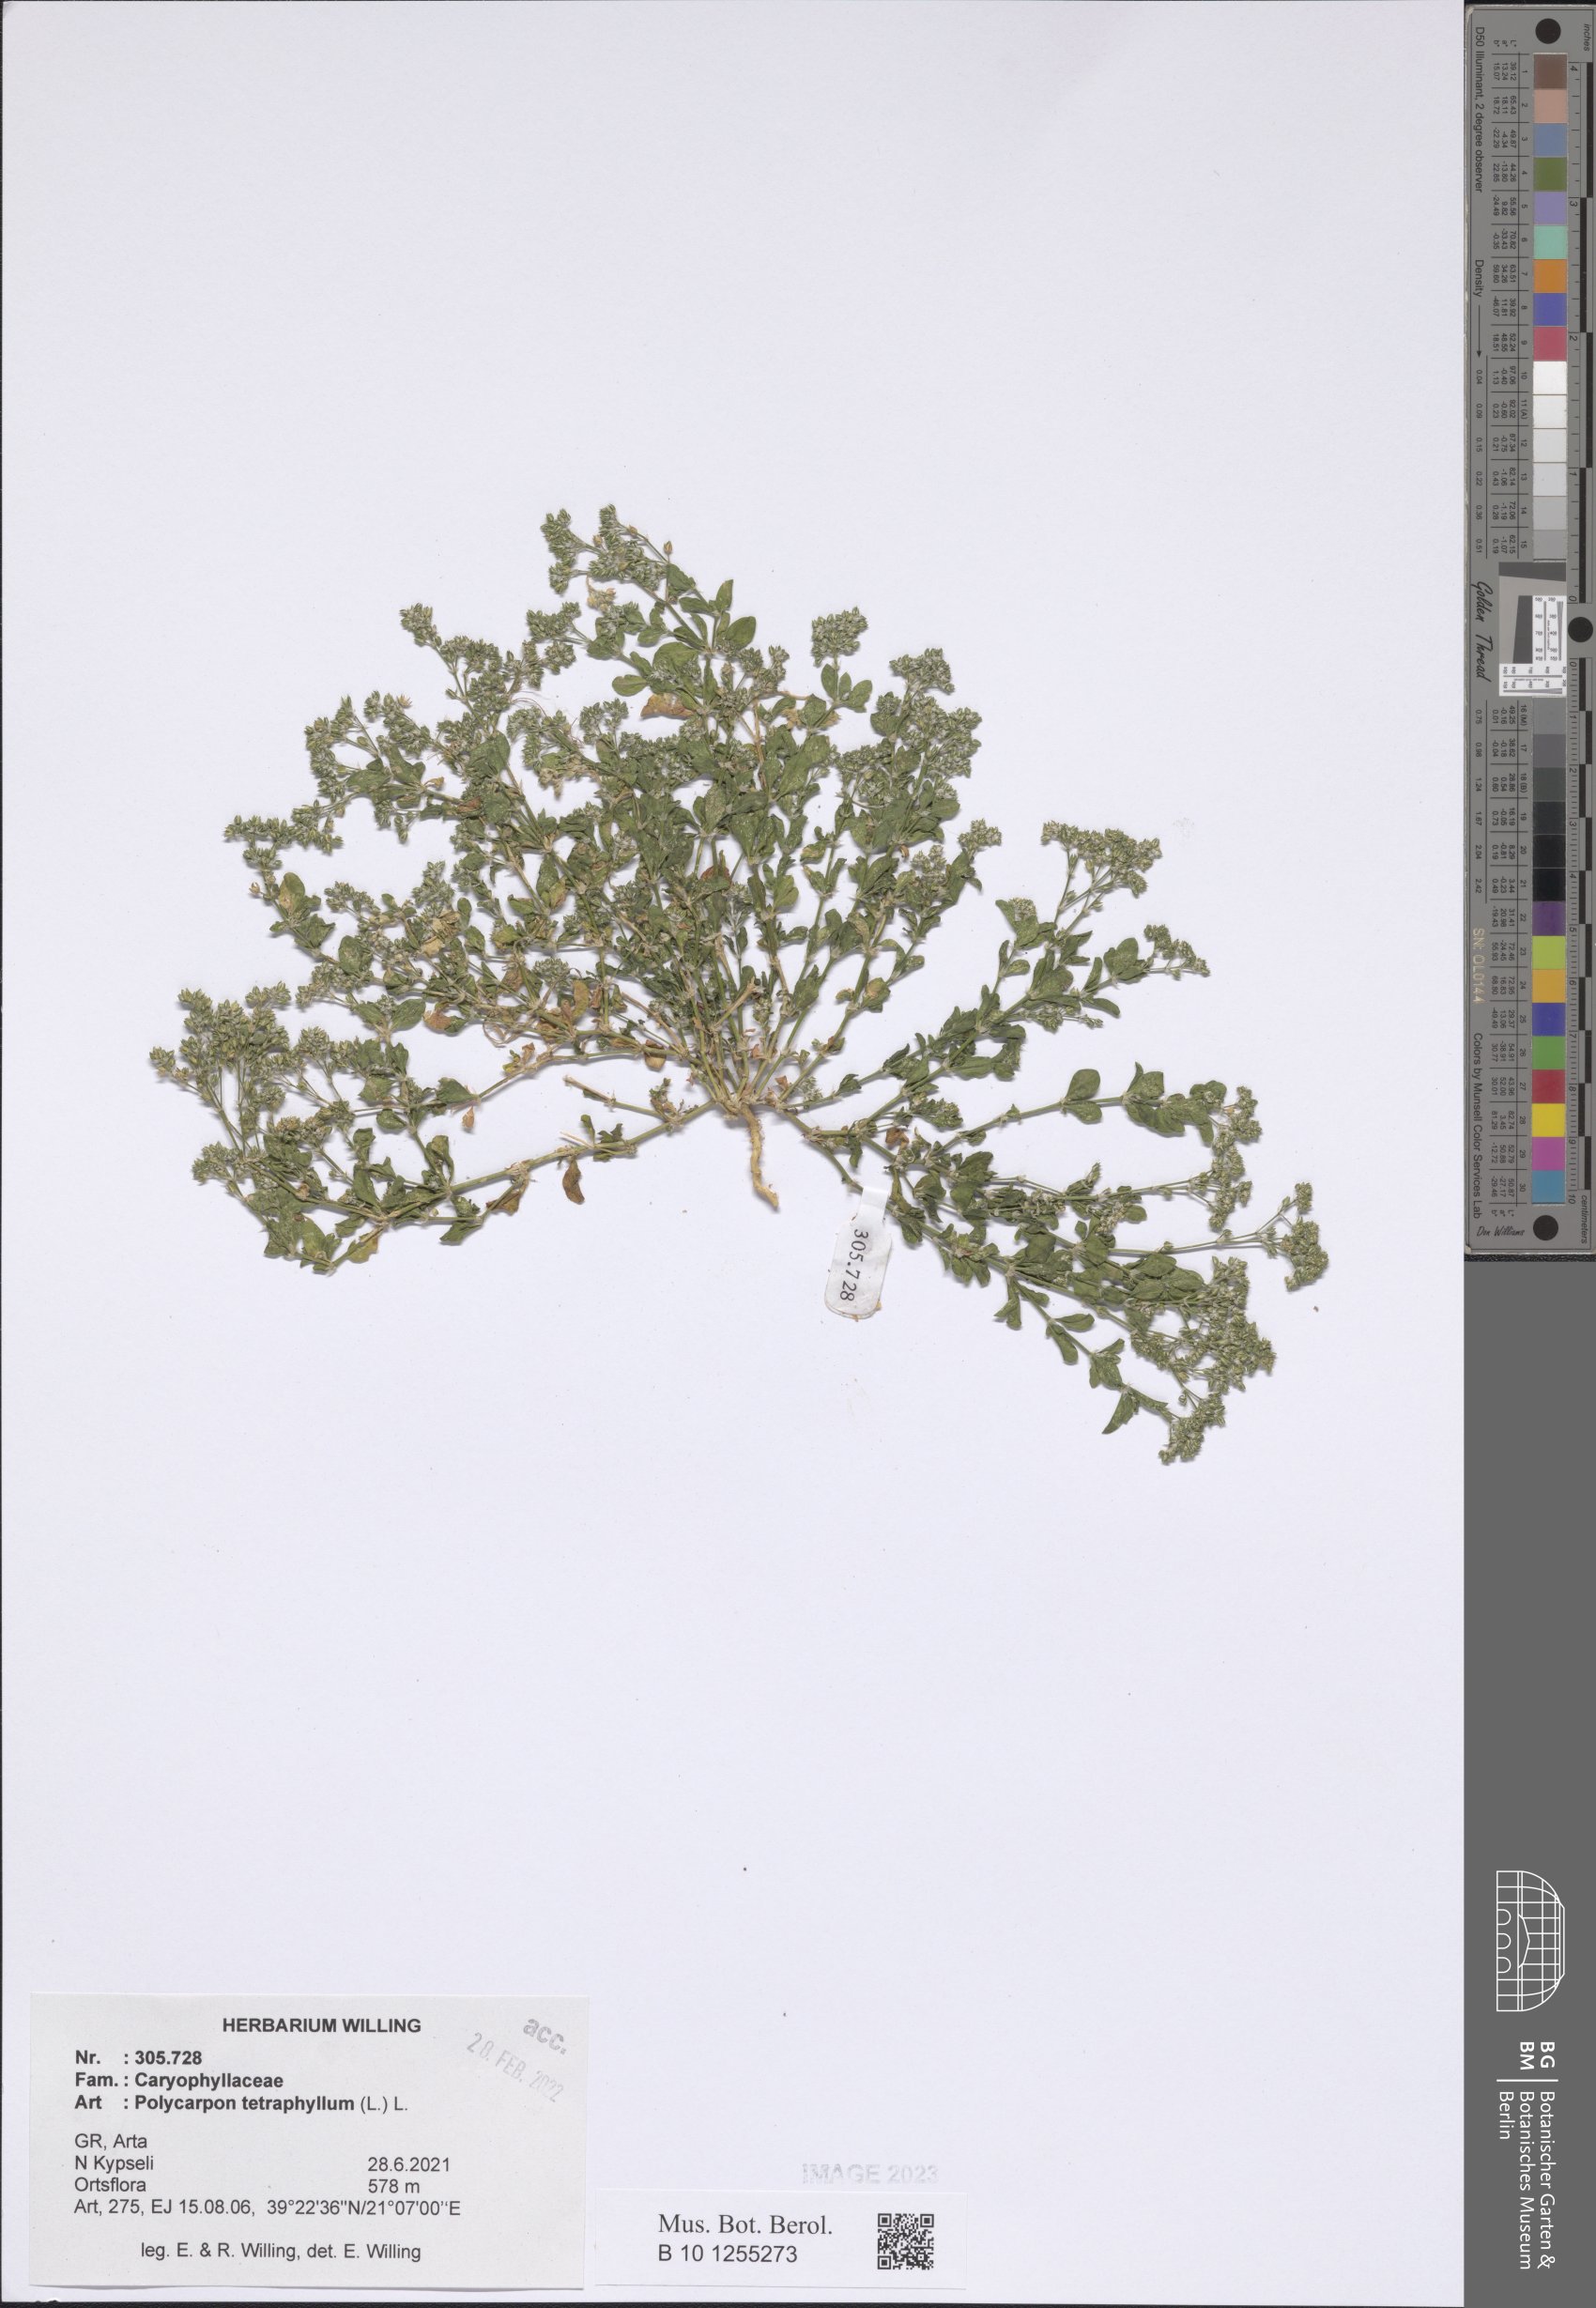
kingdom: Plantae
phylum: Tracheophyta
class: Magnoliopsida
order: Caryophyllales
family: Caryophyllaceae
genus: Polycarpon
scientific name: Polycarpon tetraphyllum
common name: Four-leaved all-seed
